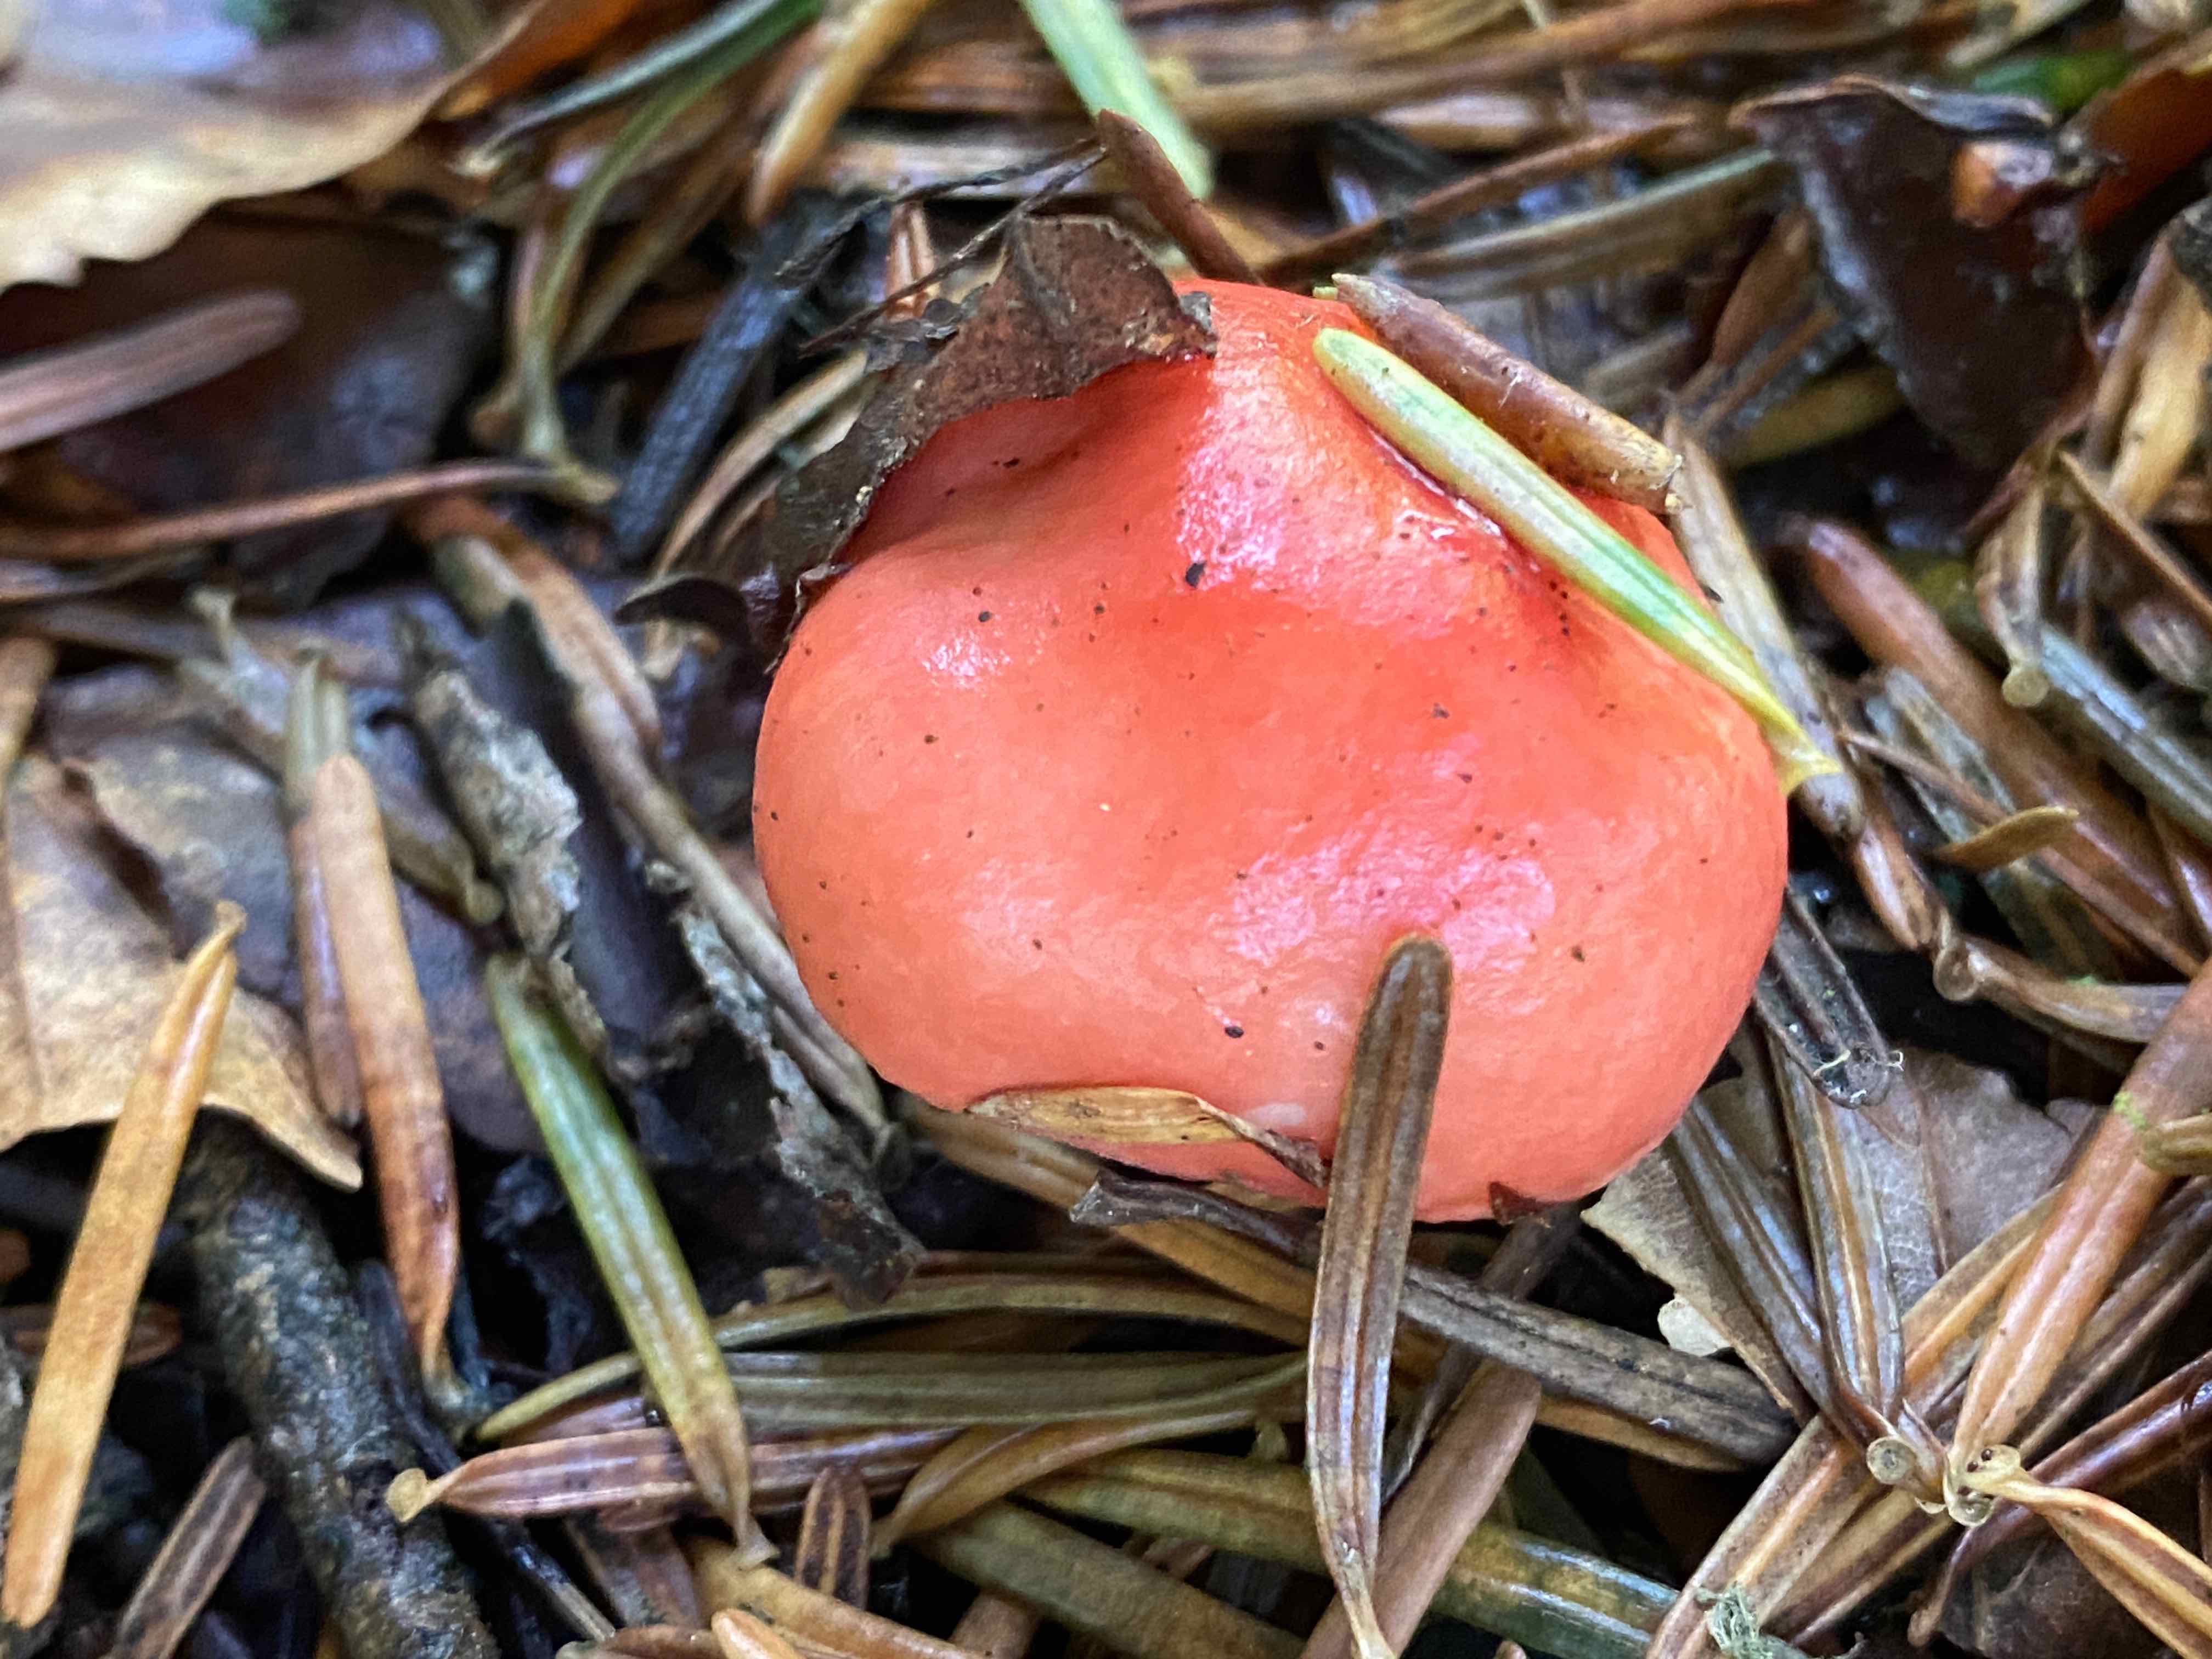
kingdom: Fungi
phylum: Basidiomycota
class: Agaricomycetes
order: Russulales
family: Russulaceae
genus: Russula
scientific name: Russula emetica
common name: stor gift-skørhat
